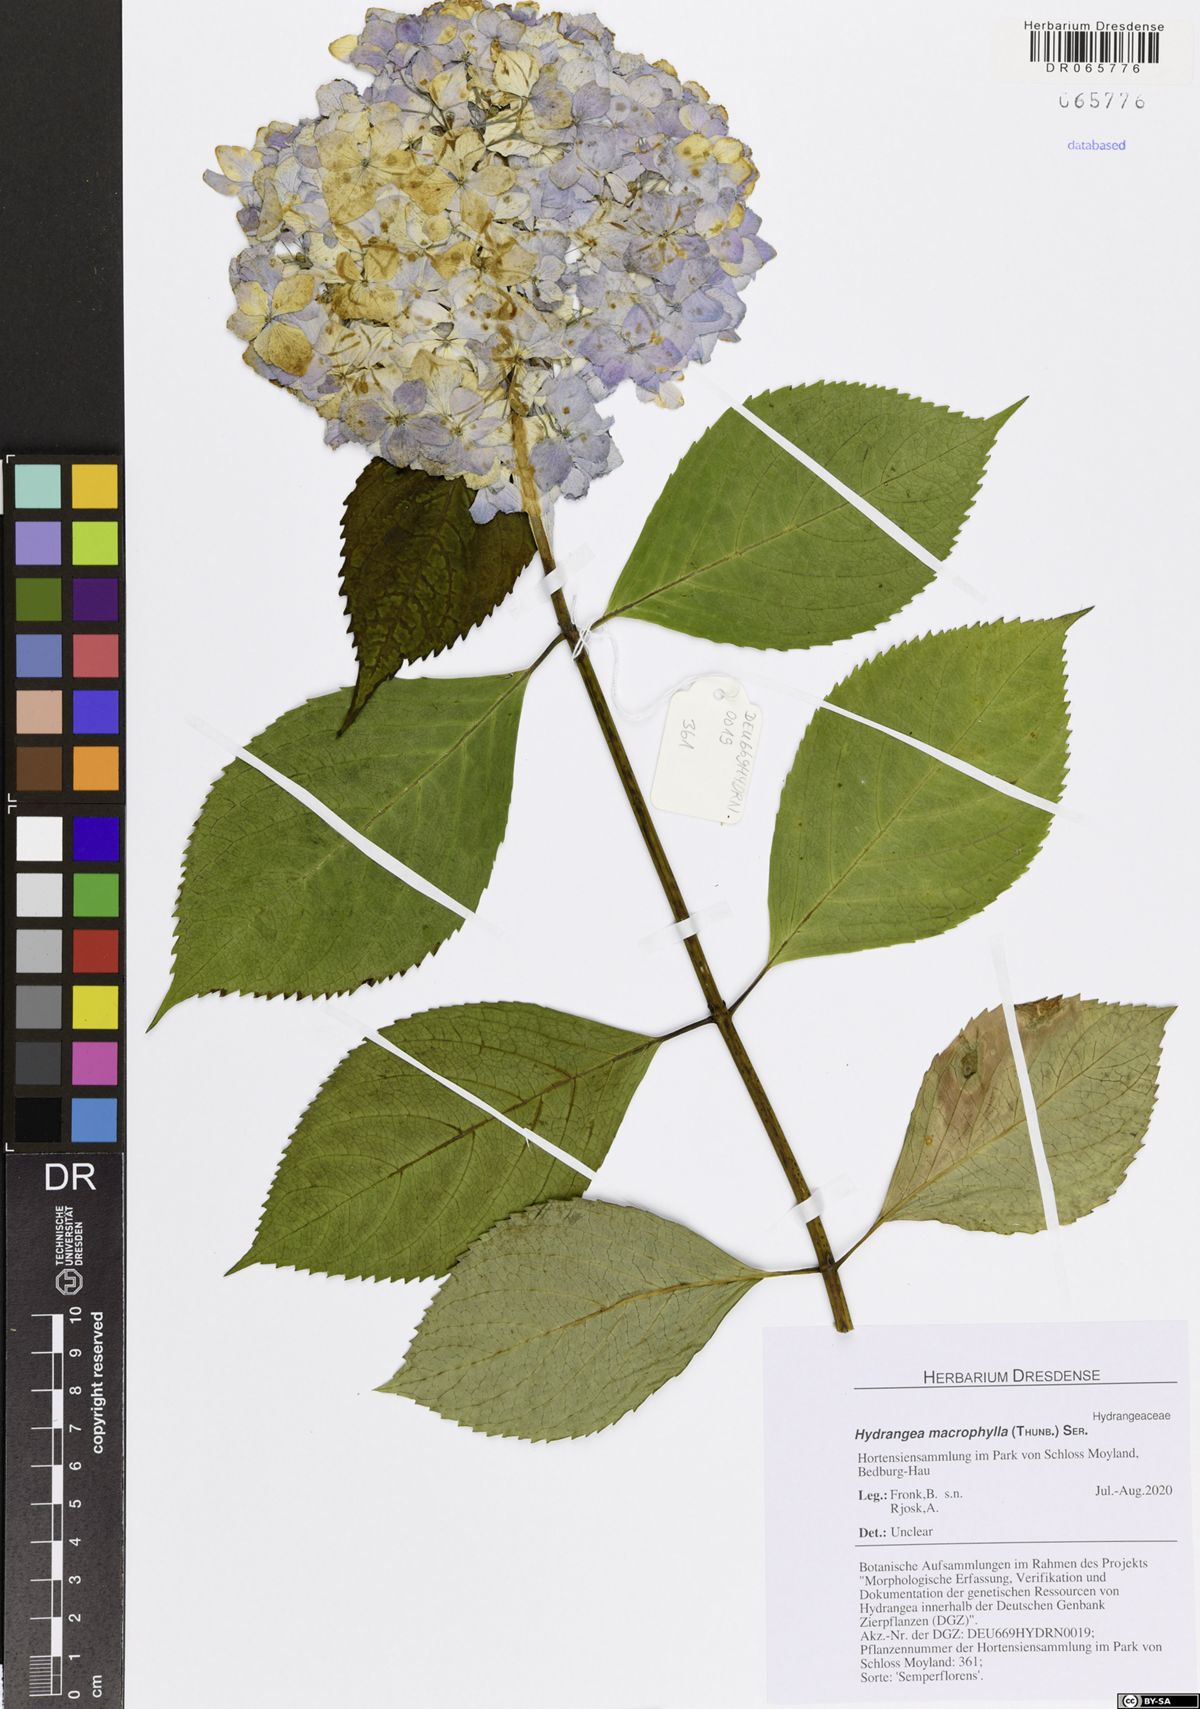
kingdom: Plantae
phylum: Tracheophyta
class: Magnoliopsida
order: Cornales
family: Hydrangeaceae
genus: Hydrangea
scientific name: Hydrangea macrophylla
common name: Hydrangea
